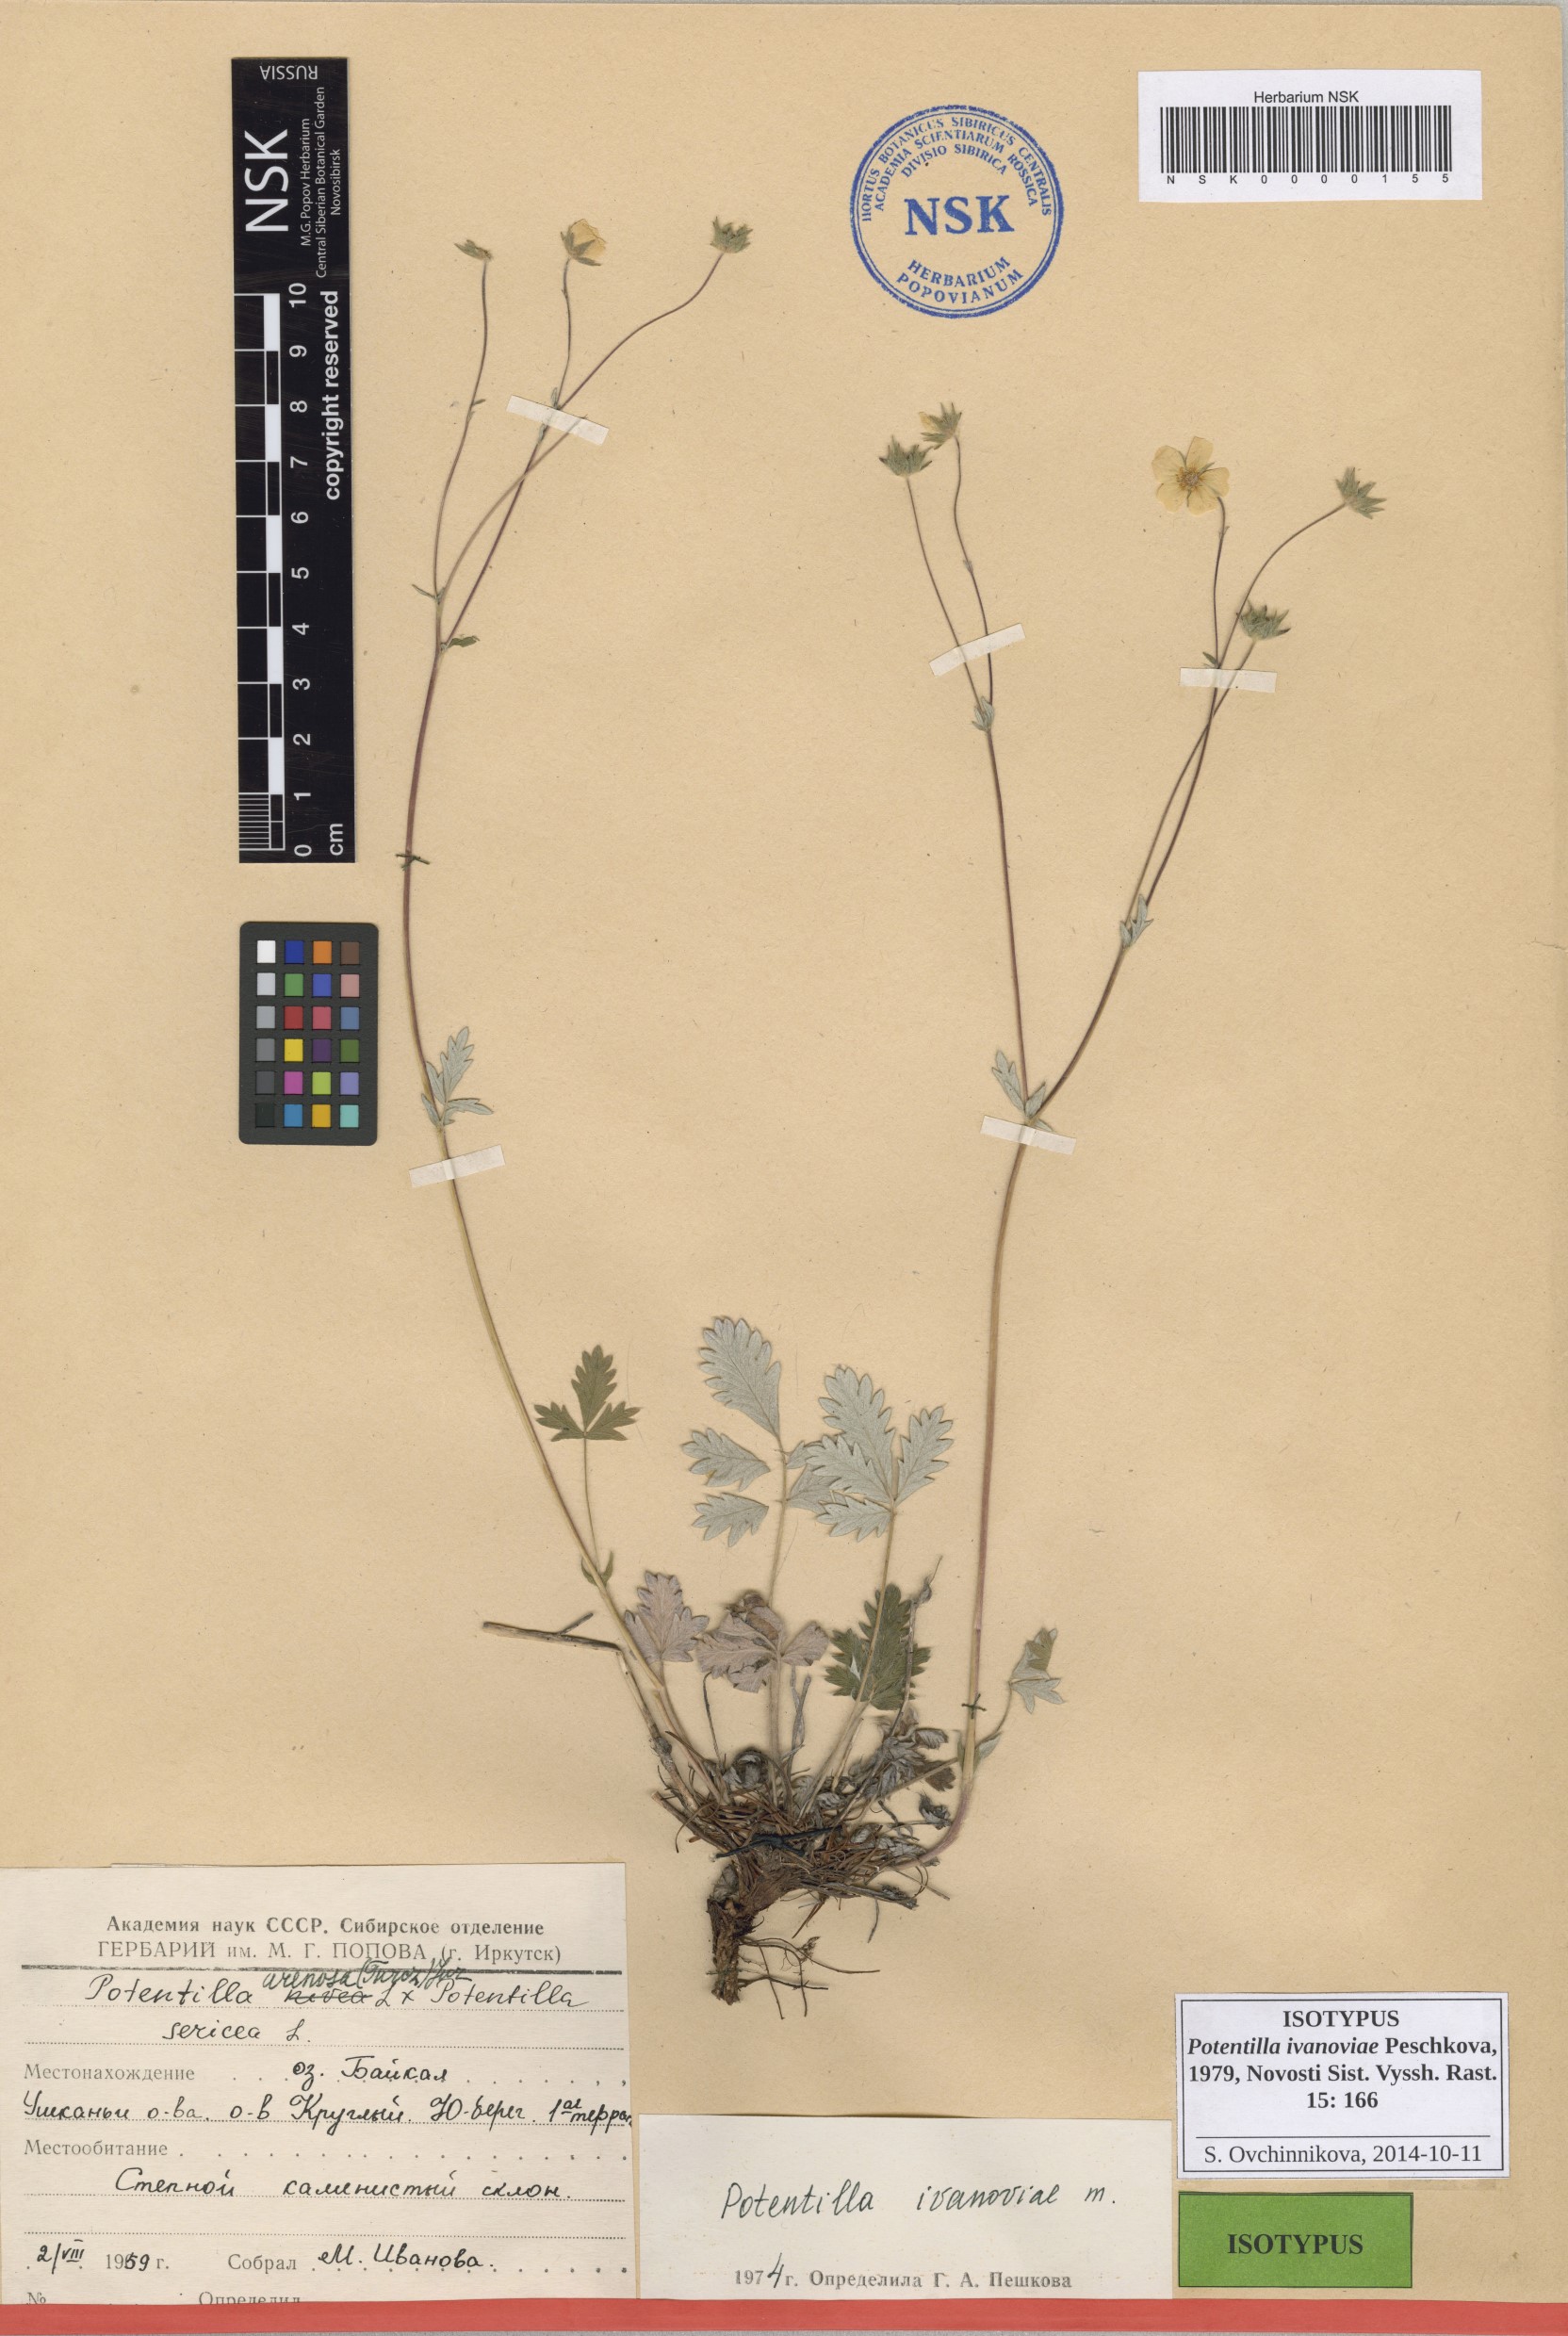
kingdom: Plantae
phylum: Tracheophyta
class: Magnoliopsida
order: Rosales
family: Rosaceae
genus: Potentilla
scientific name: Potentilla ivanoviae
